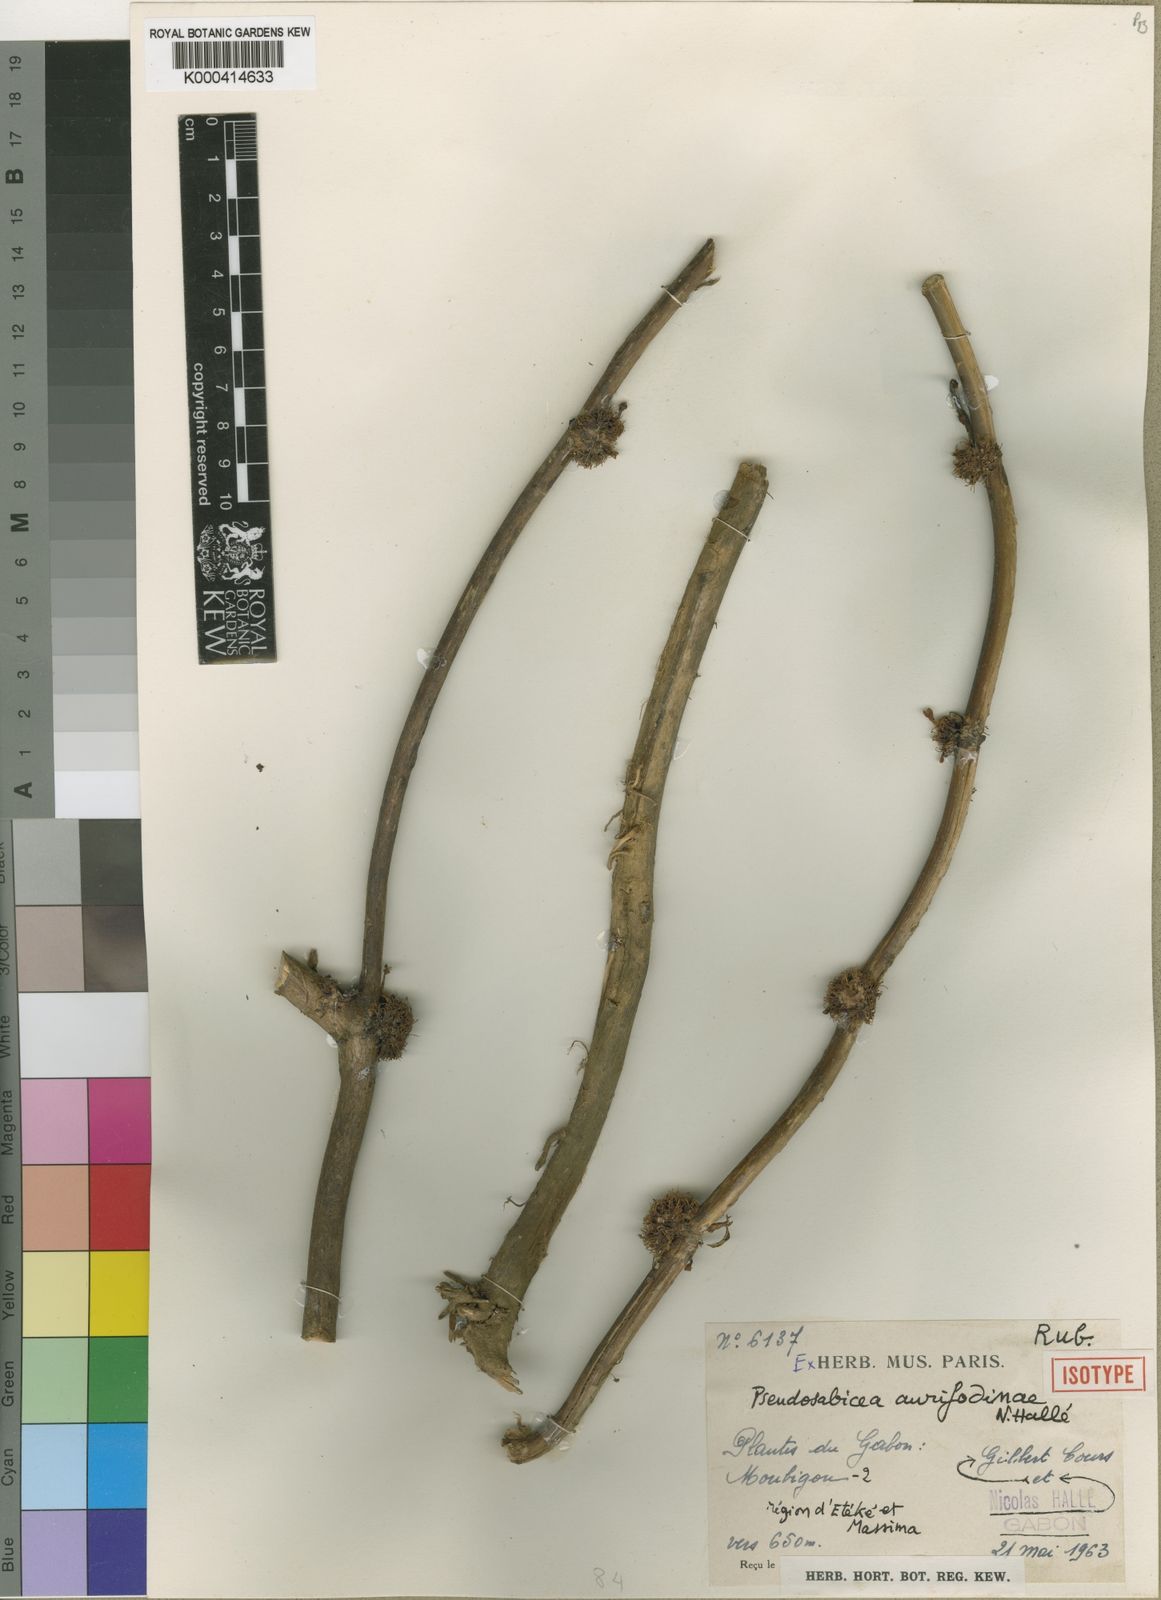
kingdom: Plantae
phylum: Tracheophyta
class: Magnoliopsida
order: Gentianales
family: Rubiaceae
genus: Sabicea
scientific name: Sabicea
